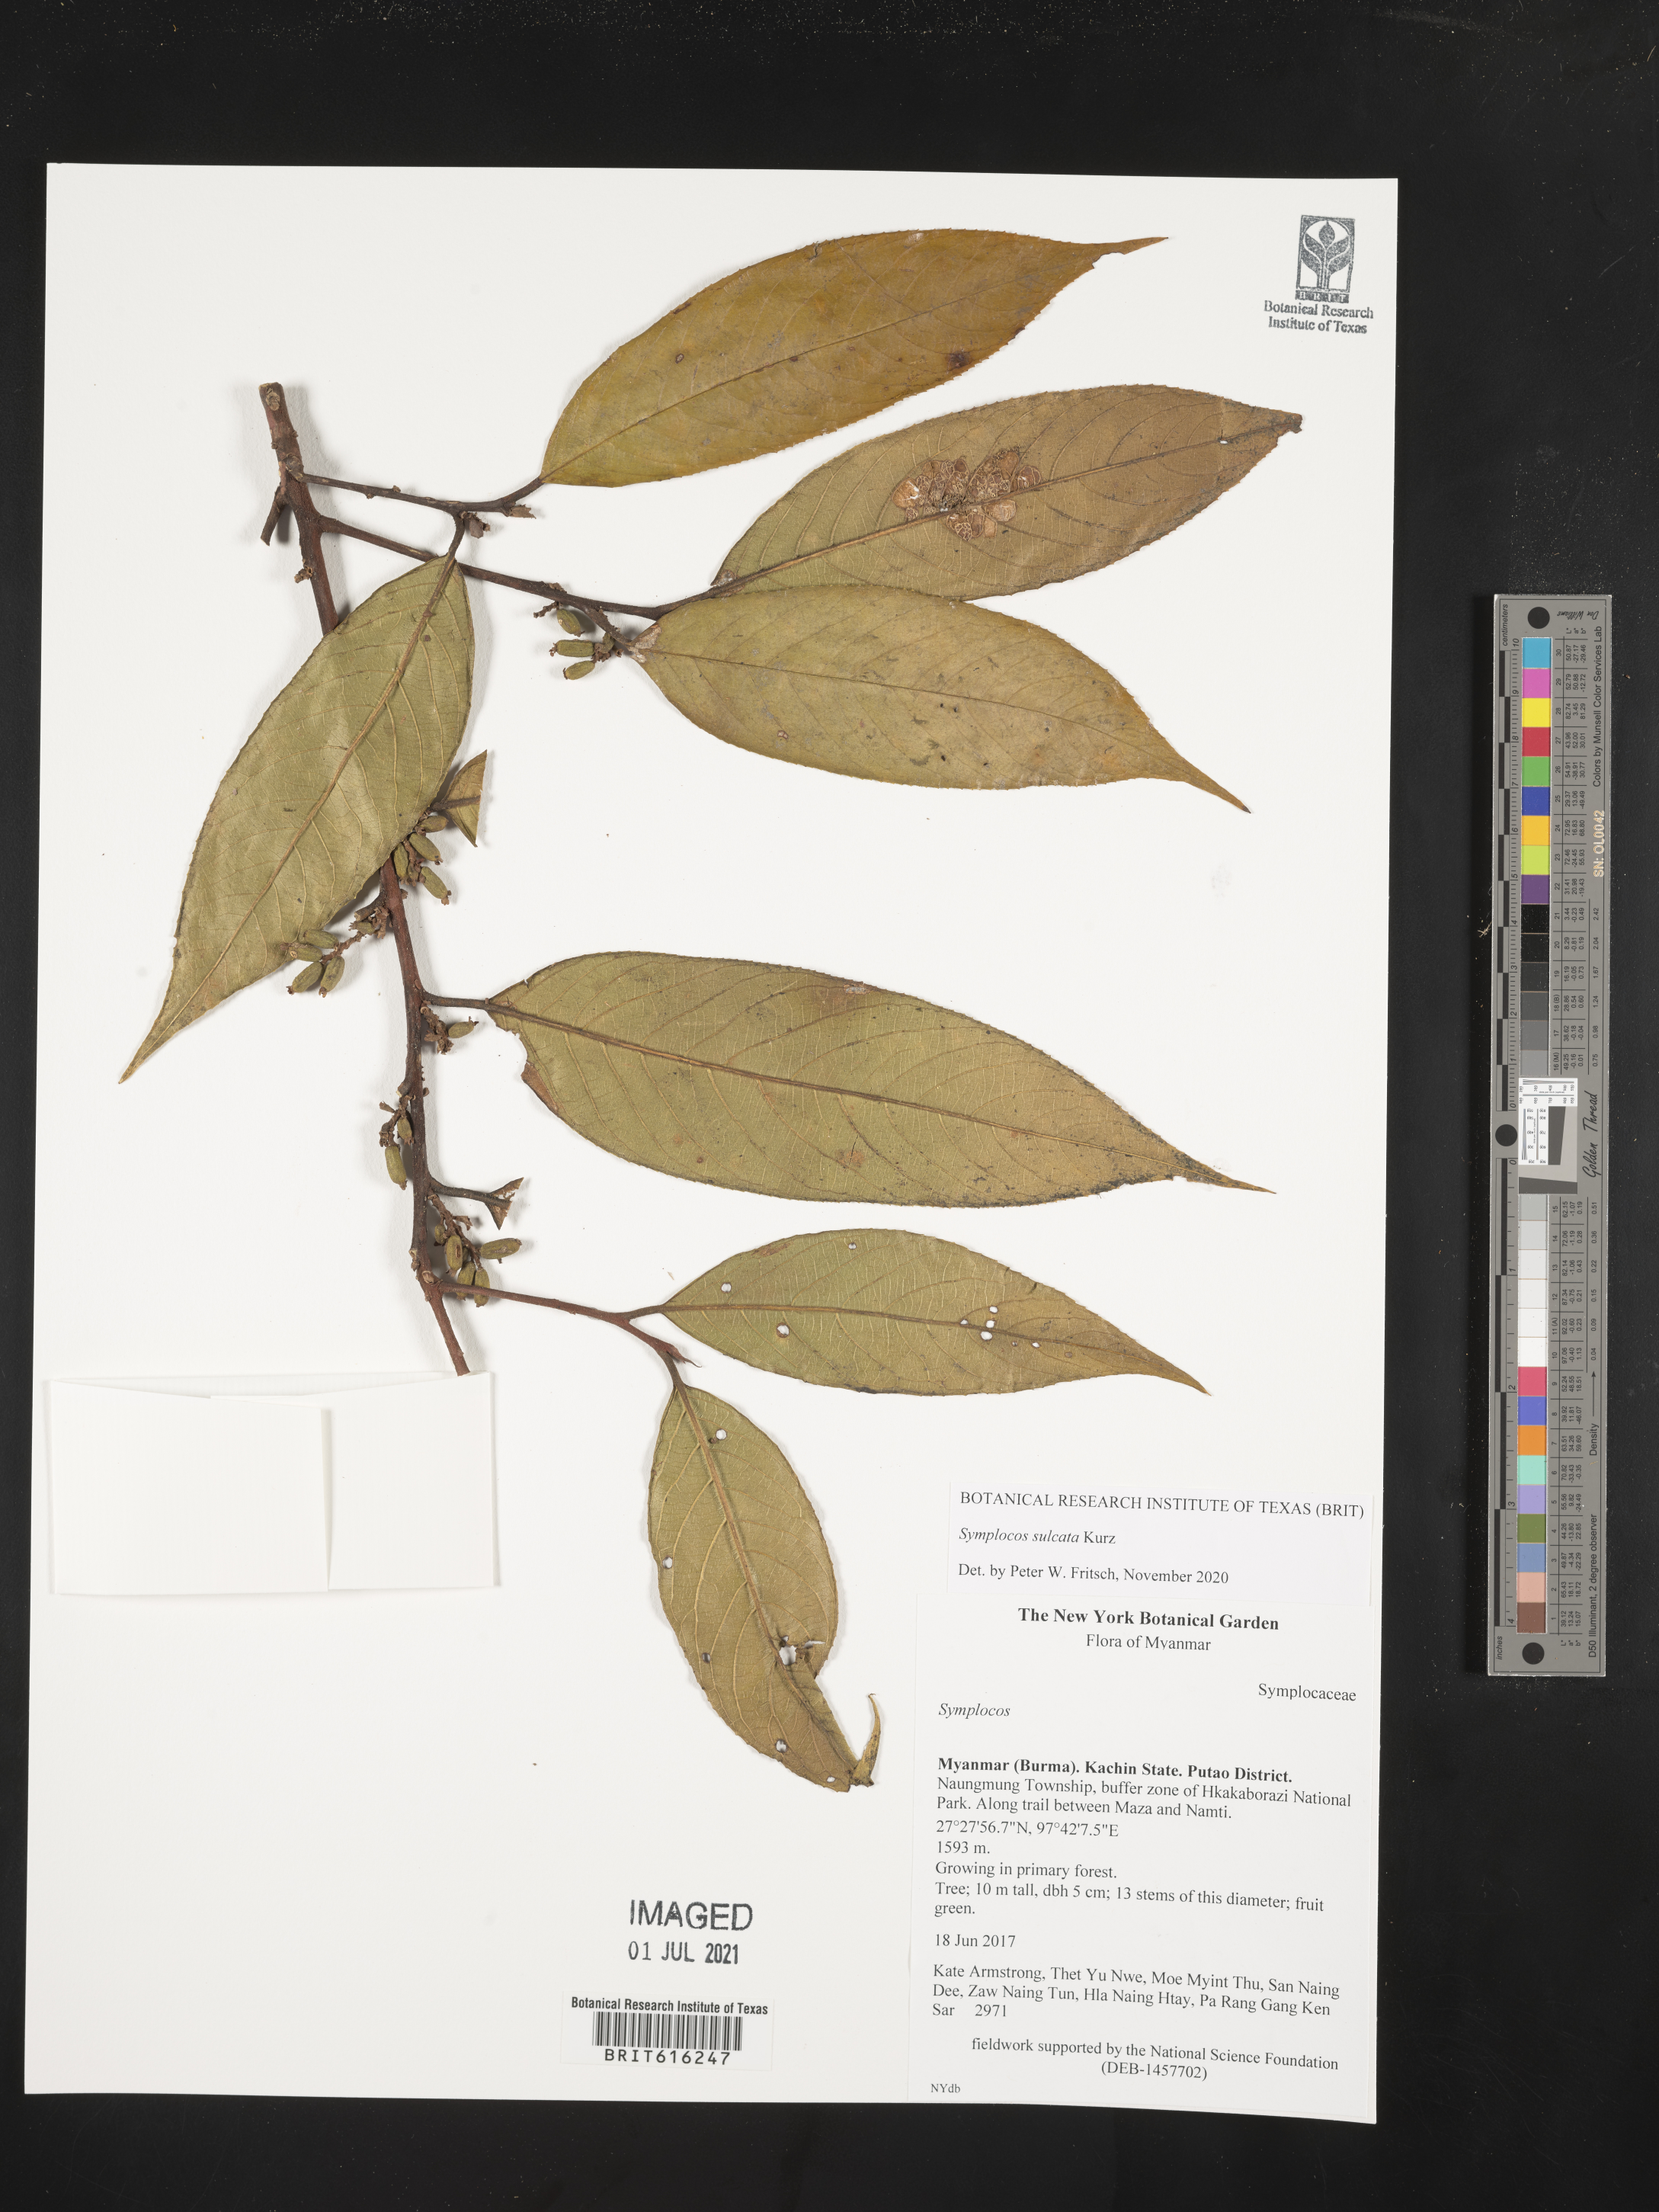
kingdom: Plantae
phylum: Tracheophyta
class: Magnoliopsida
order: Ericales
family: Symplocaceae
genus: Symplocos
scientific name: Symplocos sulcata
